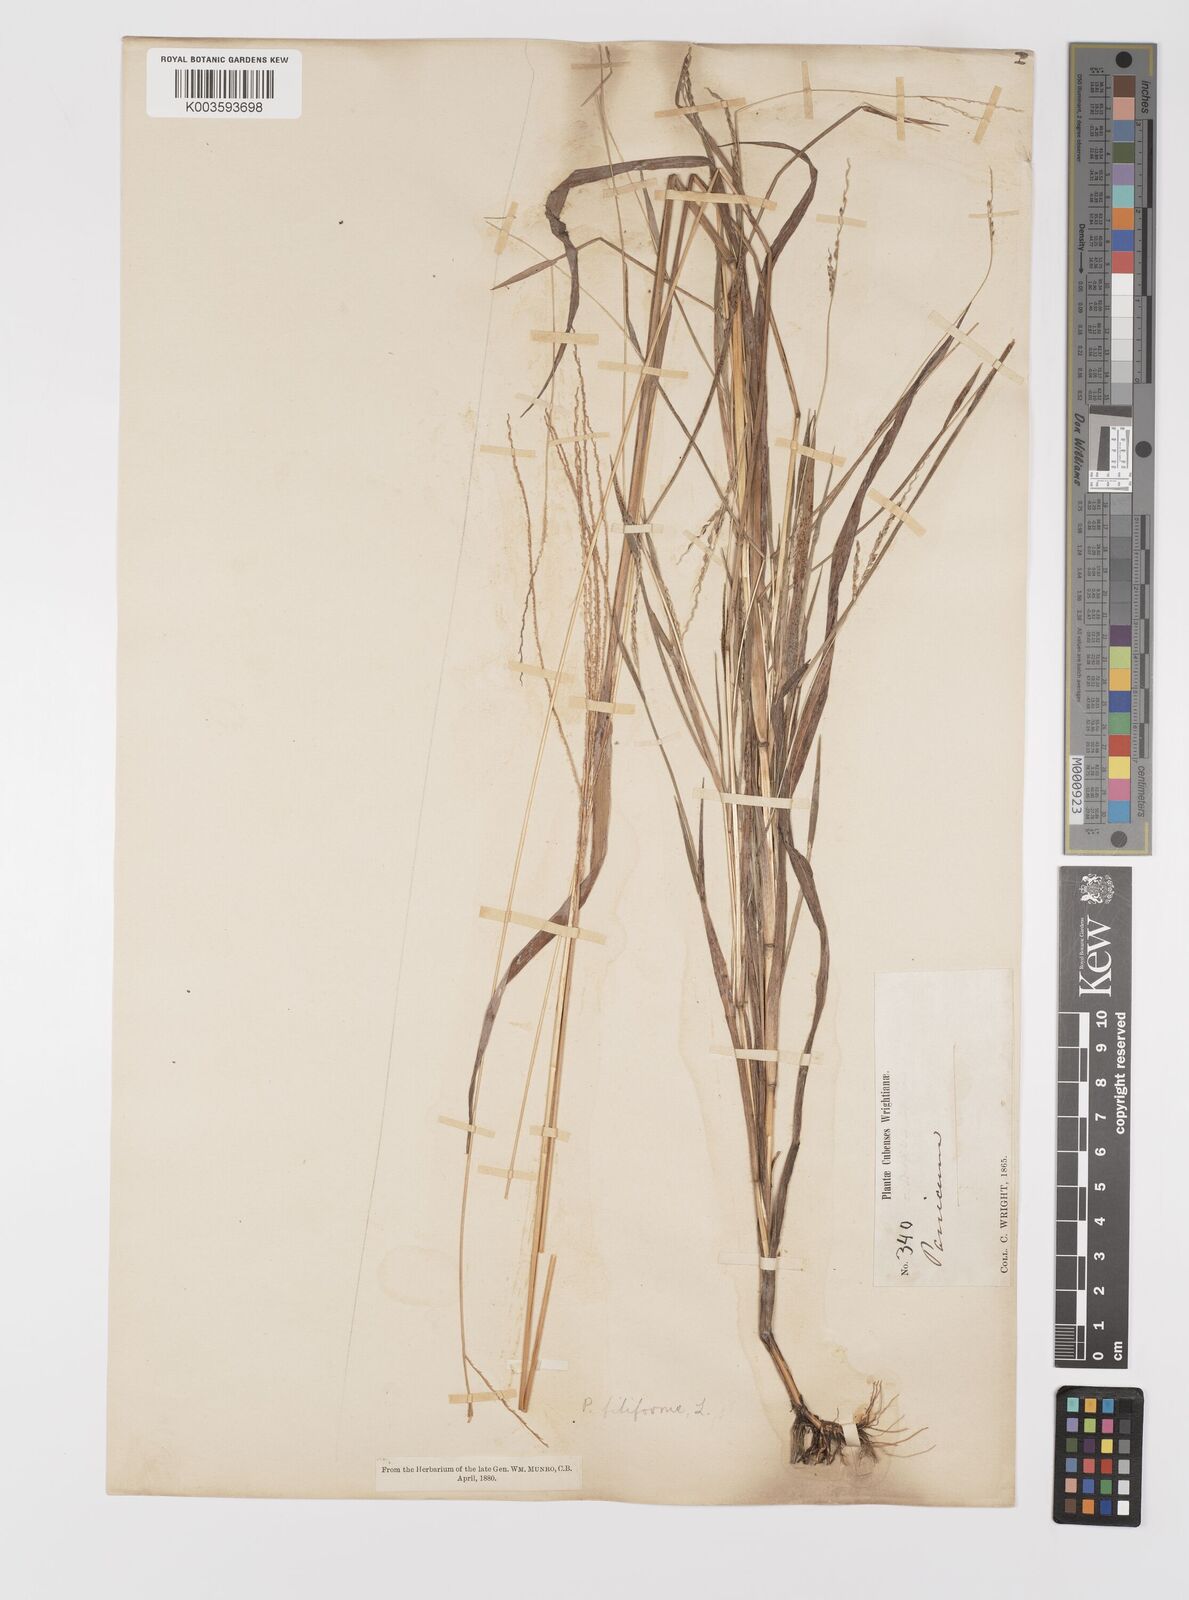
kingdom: Plantae
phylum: Tracheophyta
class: Liliopsida
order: Poales
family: Poaceae
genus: Digitaria
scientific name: Digitaria argillacea
